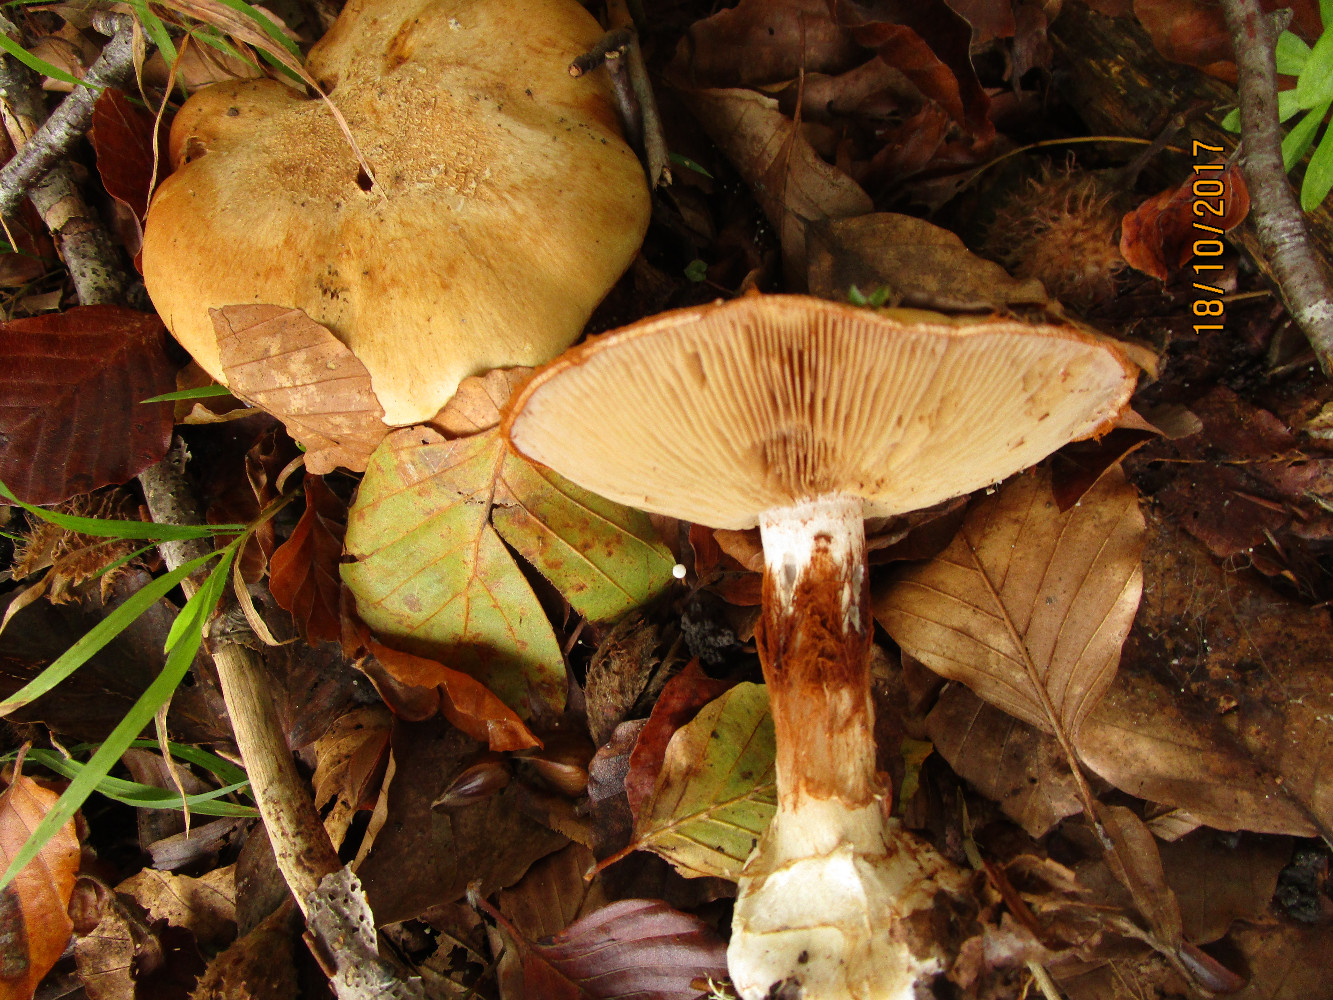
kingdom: Fungi
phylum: Basidiomycota
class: Agaricomycetes
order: Agaricales
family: Cortinariaceae
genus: Cortinarius
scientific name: Cortinarius anserinus
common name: bøge-slørhat
